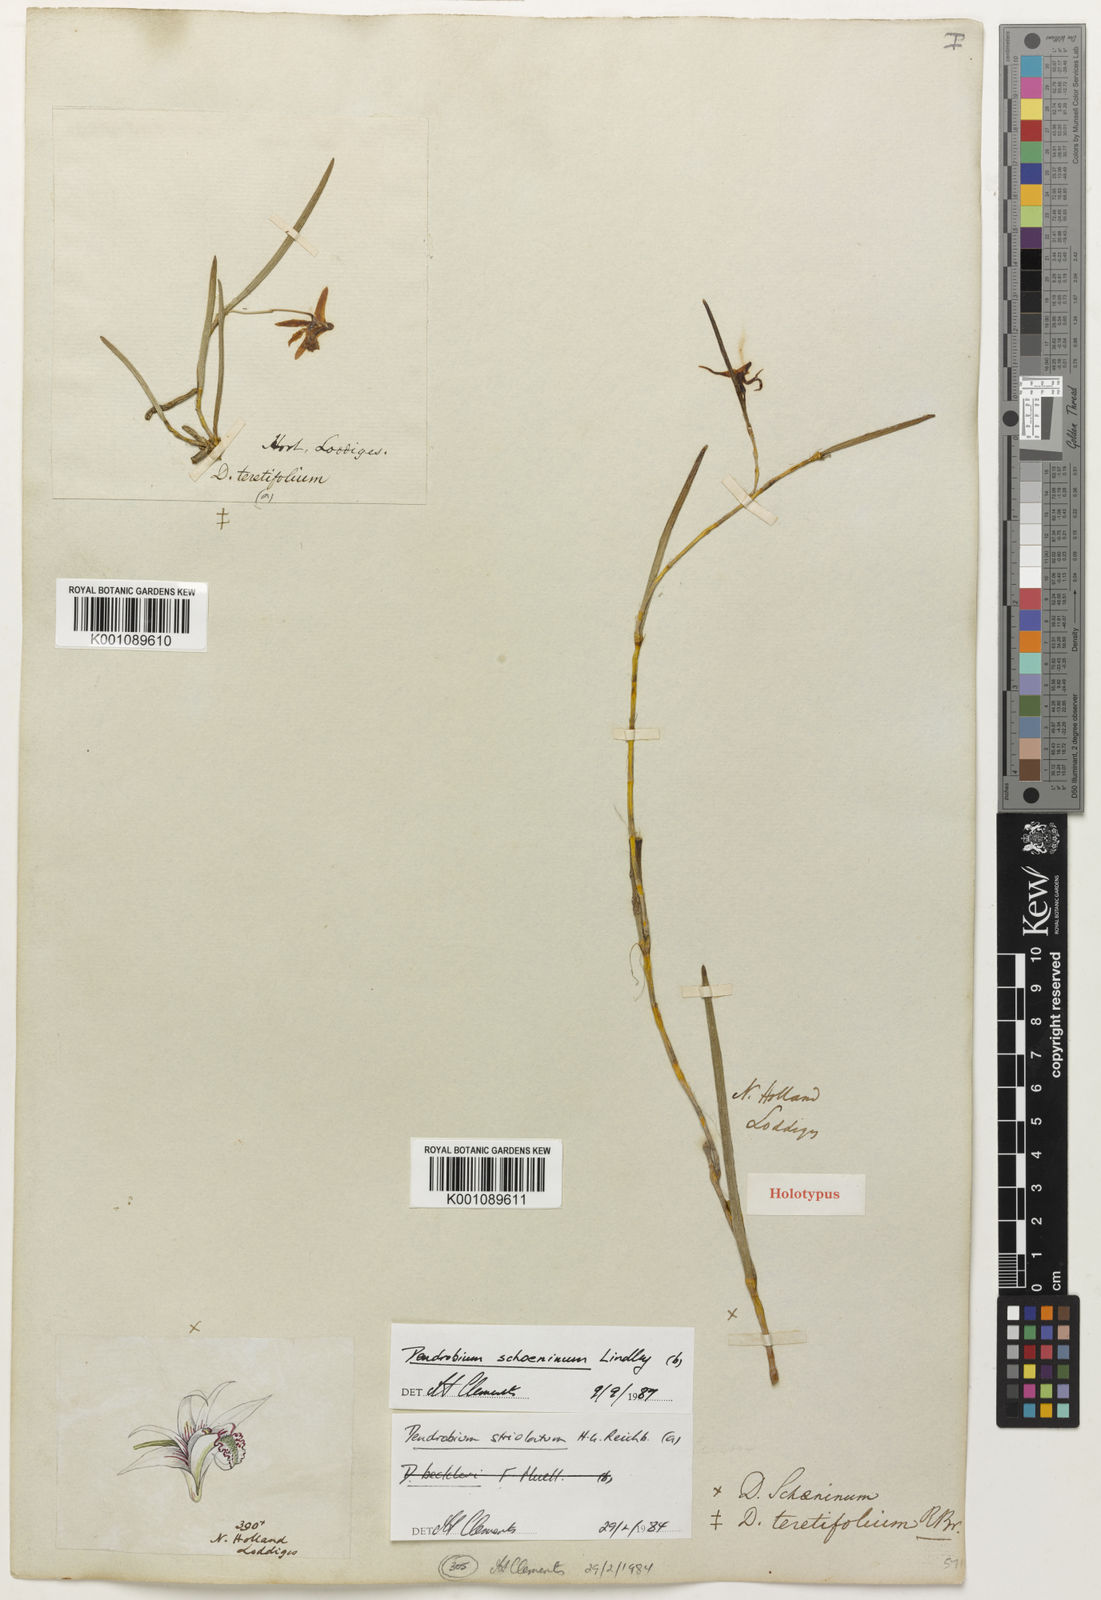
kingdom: Plantae
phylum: Tracheophyta
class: Liliopsida
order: Asparagales
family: Orchidaceae
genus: Dendrobium
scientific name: Dendrobium schoeninum
